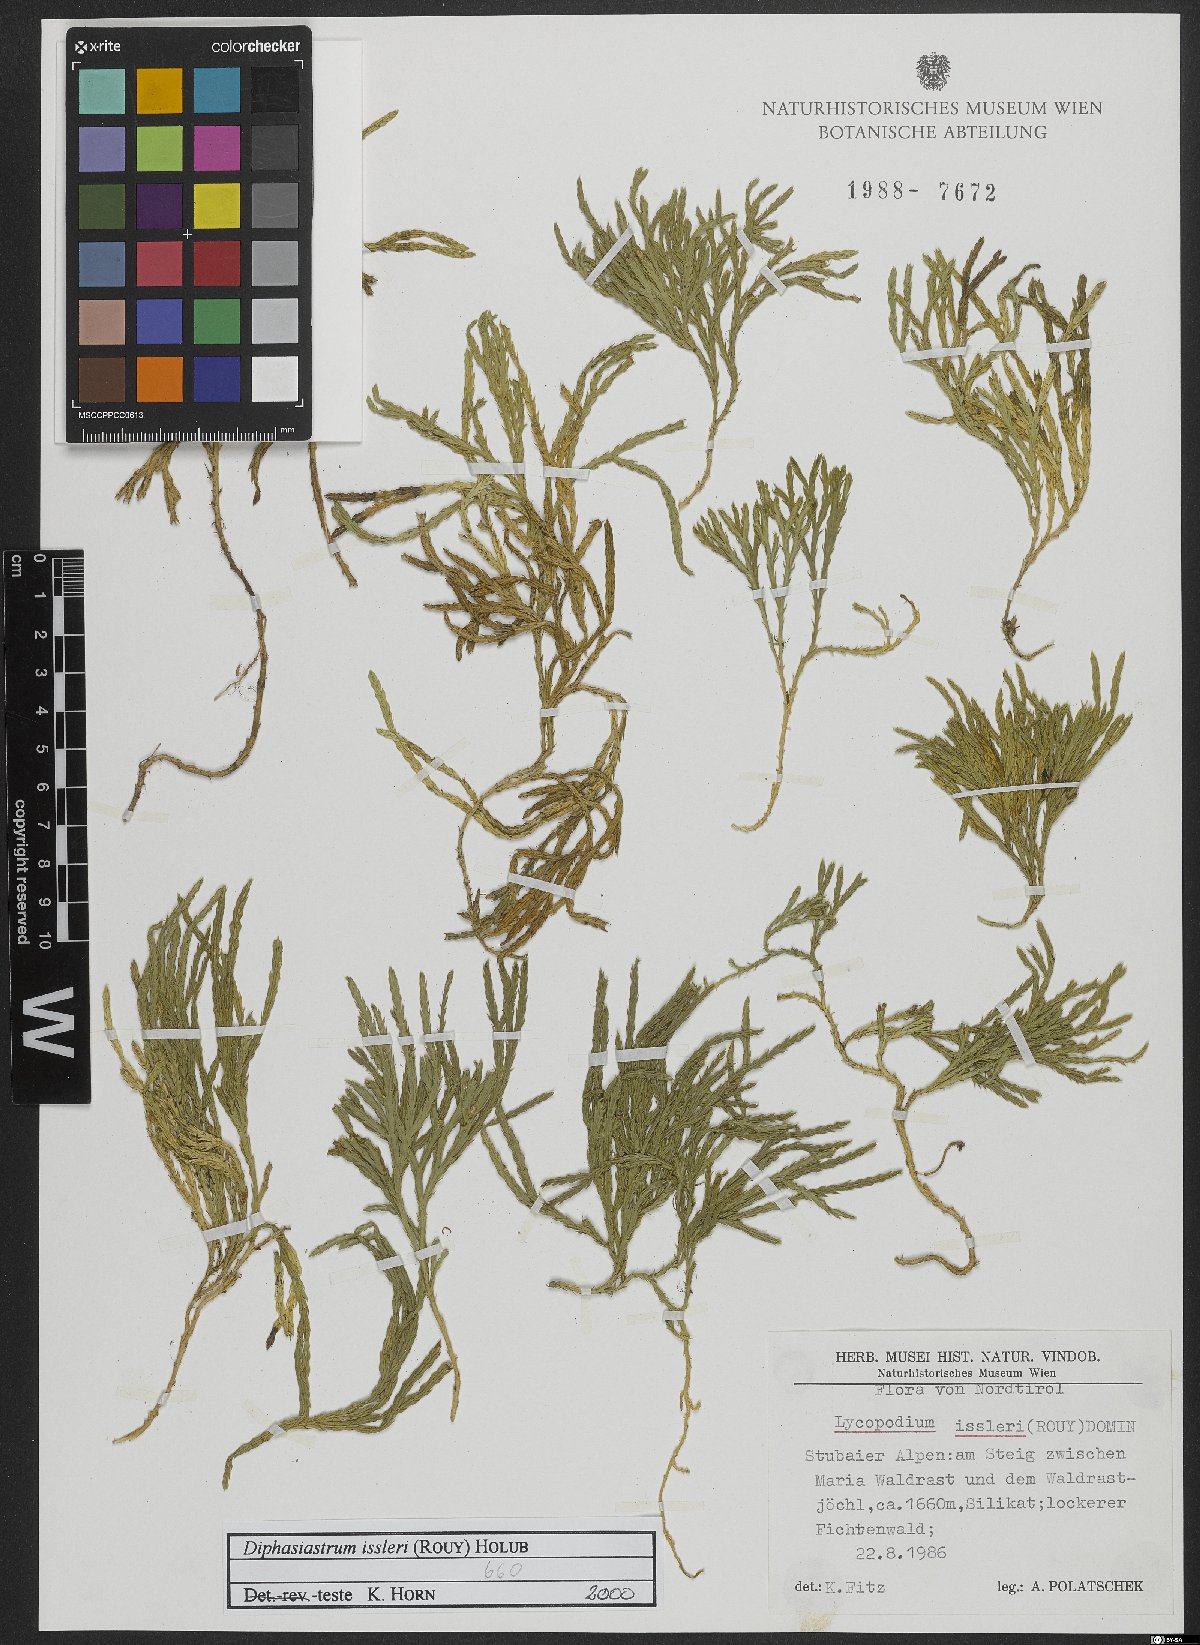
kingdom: Plantae
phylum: Tracheophyta
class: Lycopodiopsida
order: Lycopodiales
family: Lycopodiaceae
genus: Diphasiastrum
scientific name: Diphasiastrum issleri
